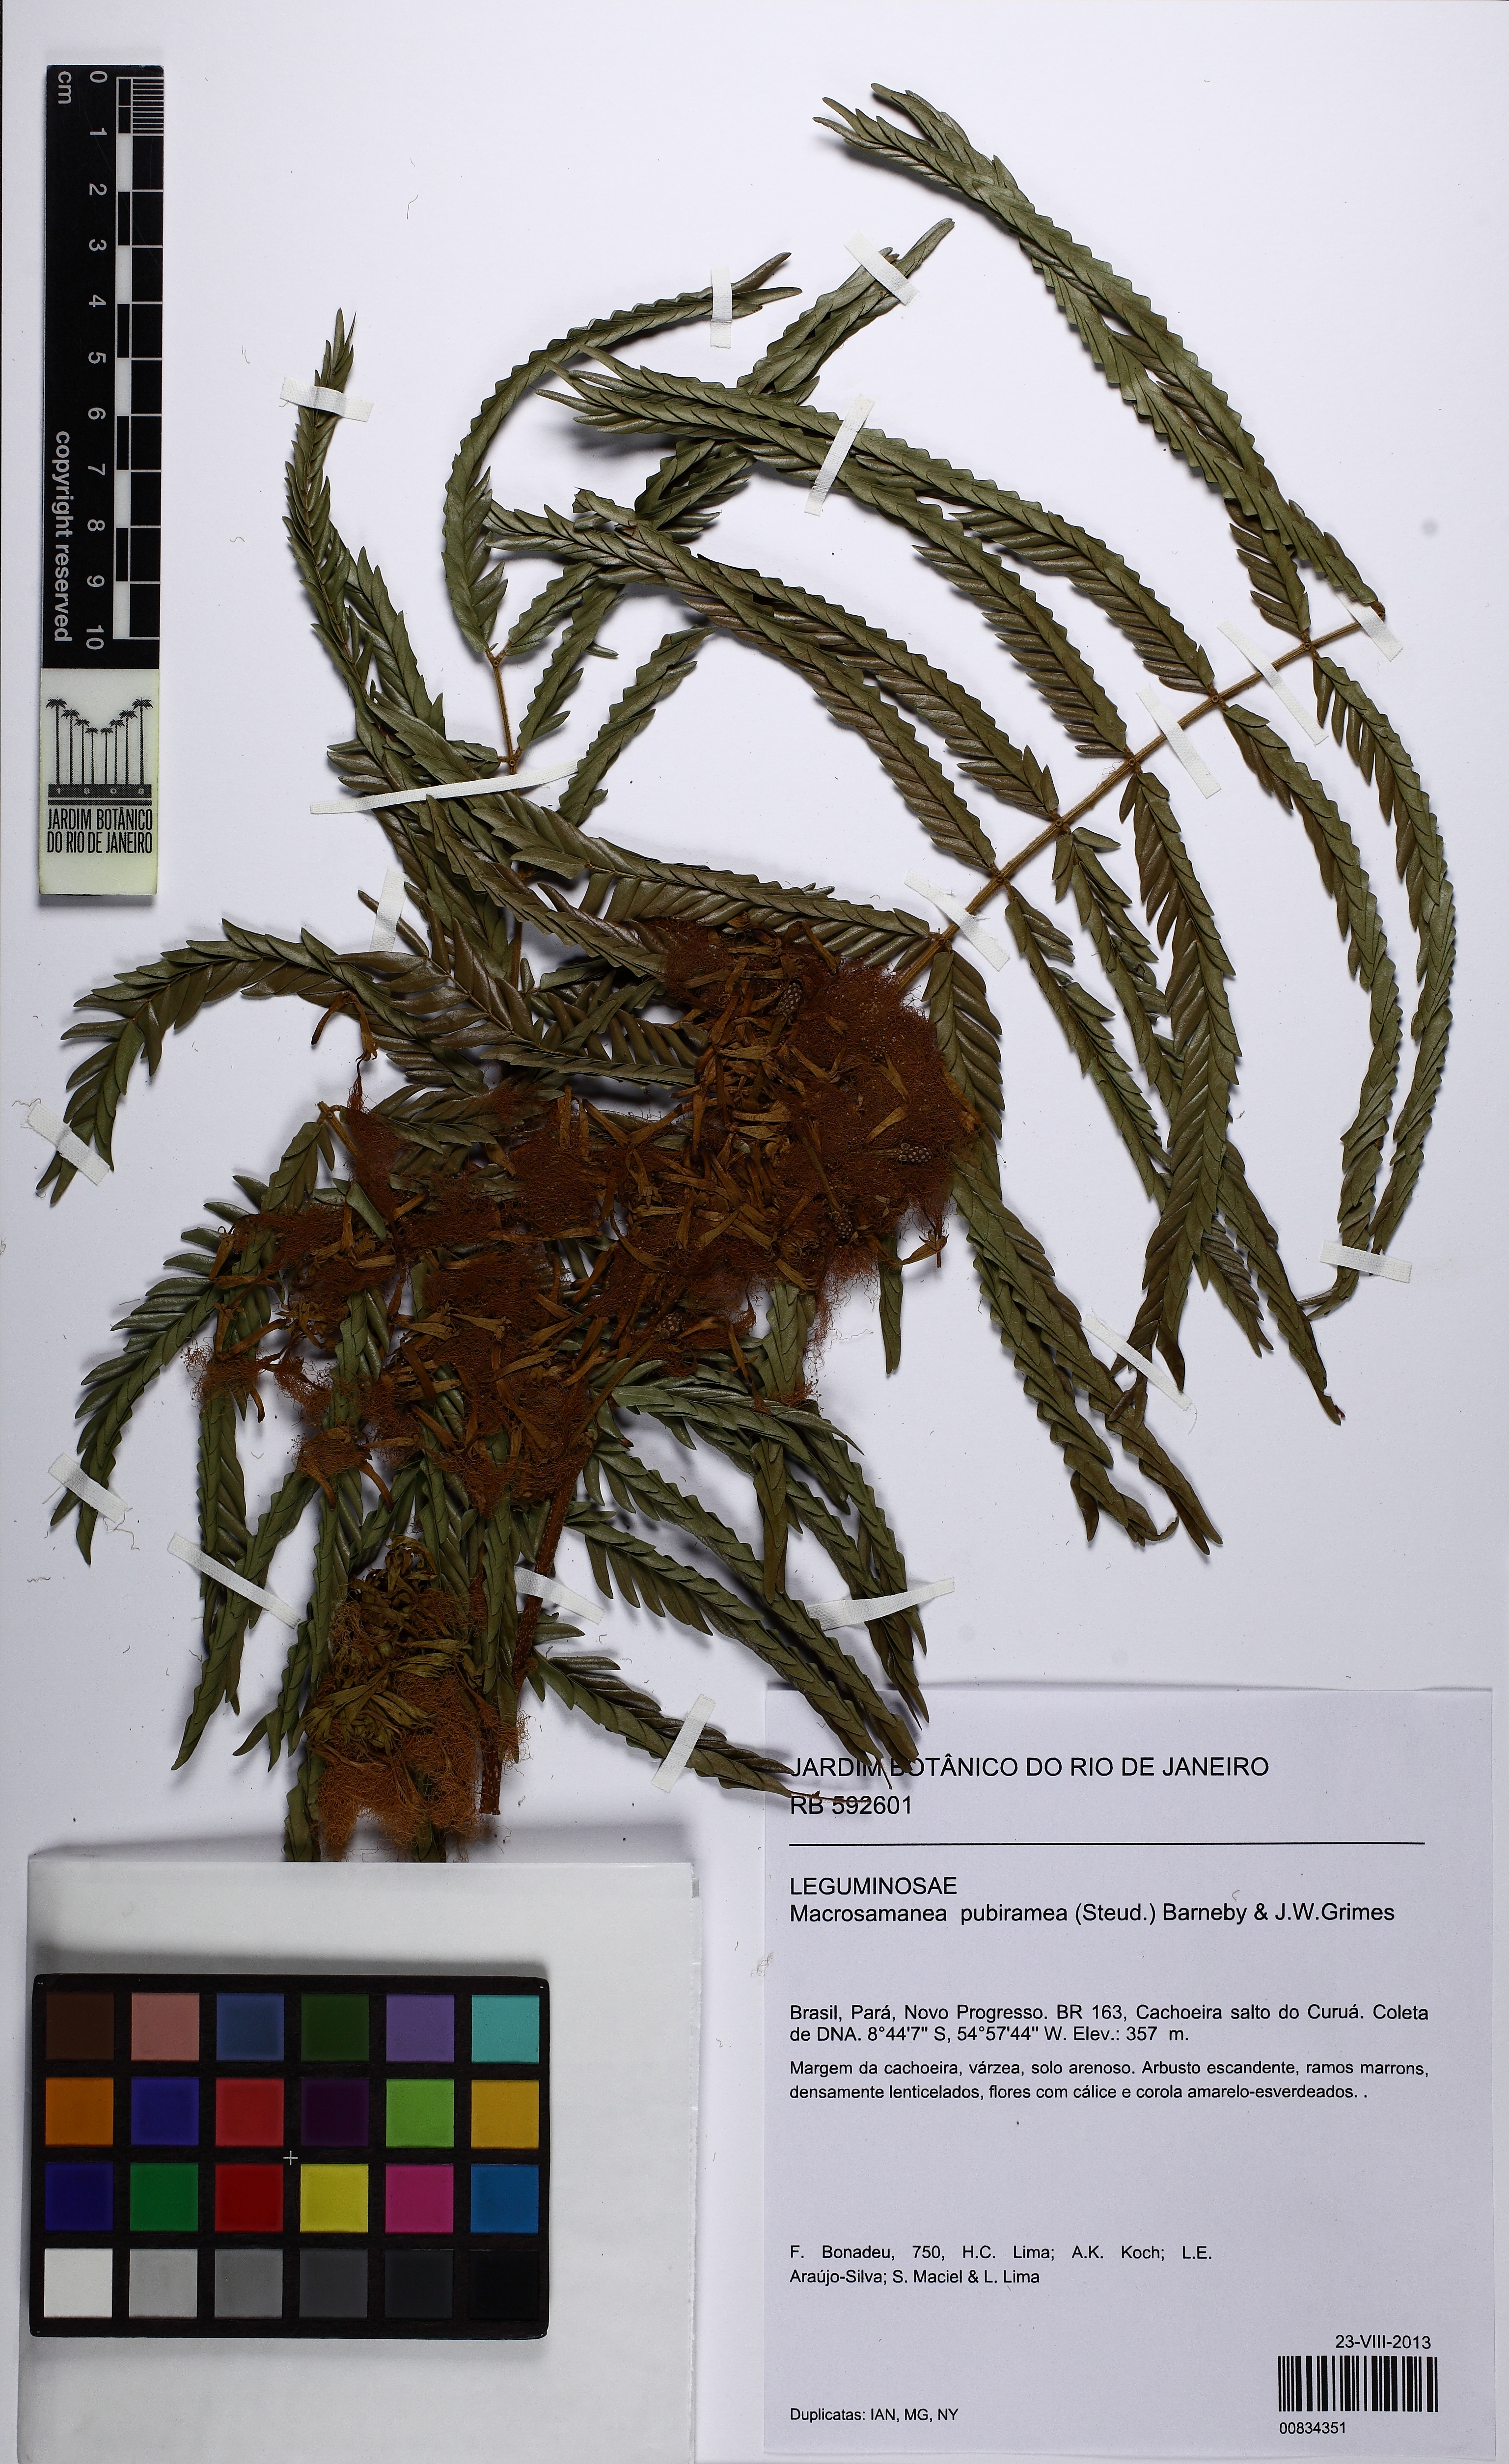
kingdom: Plantae
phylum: Tracheophyta
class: Magnoliopsida
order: Fabales
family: Fabaceae
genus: Macrosamanea
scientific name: Macrosamanea pubiramea
